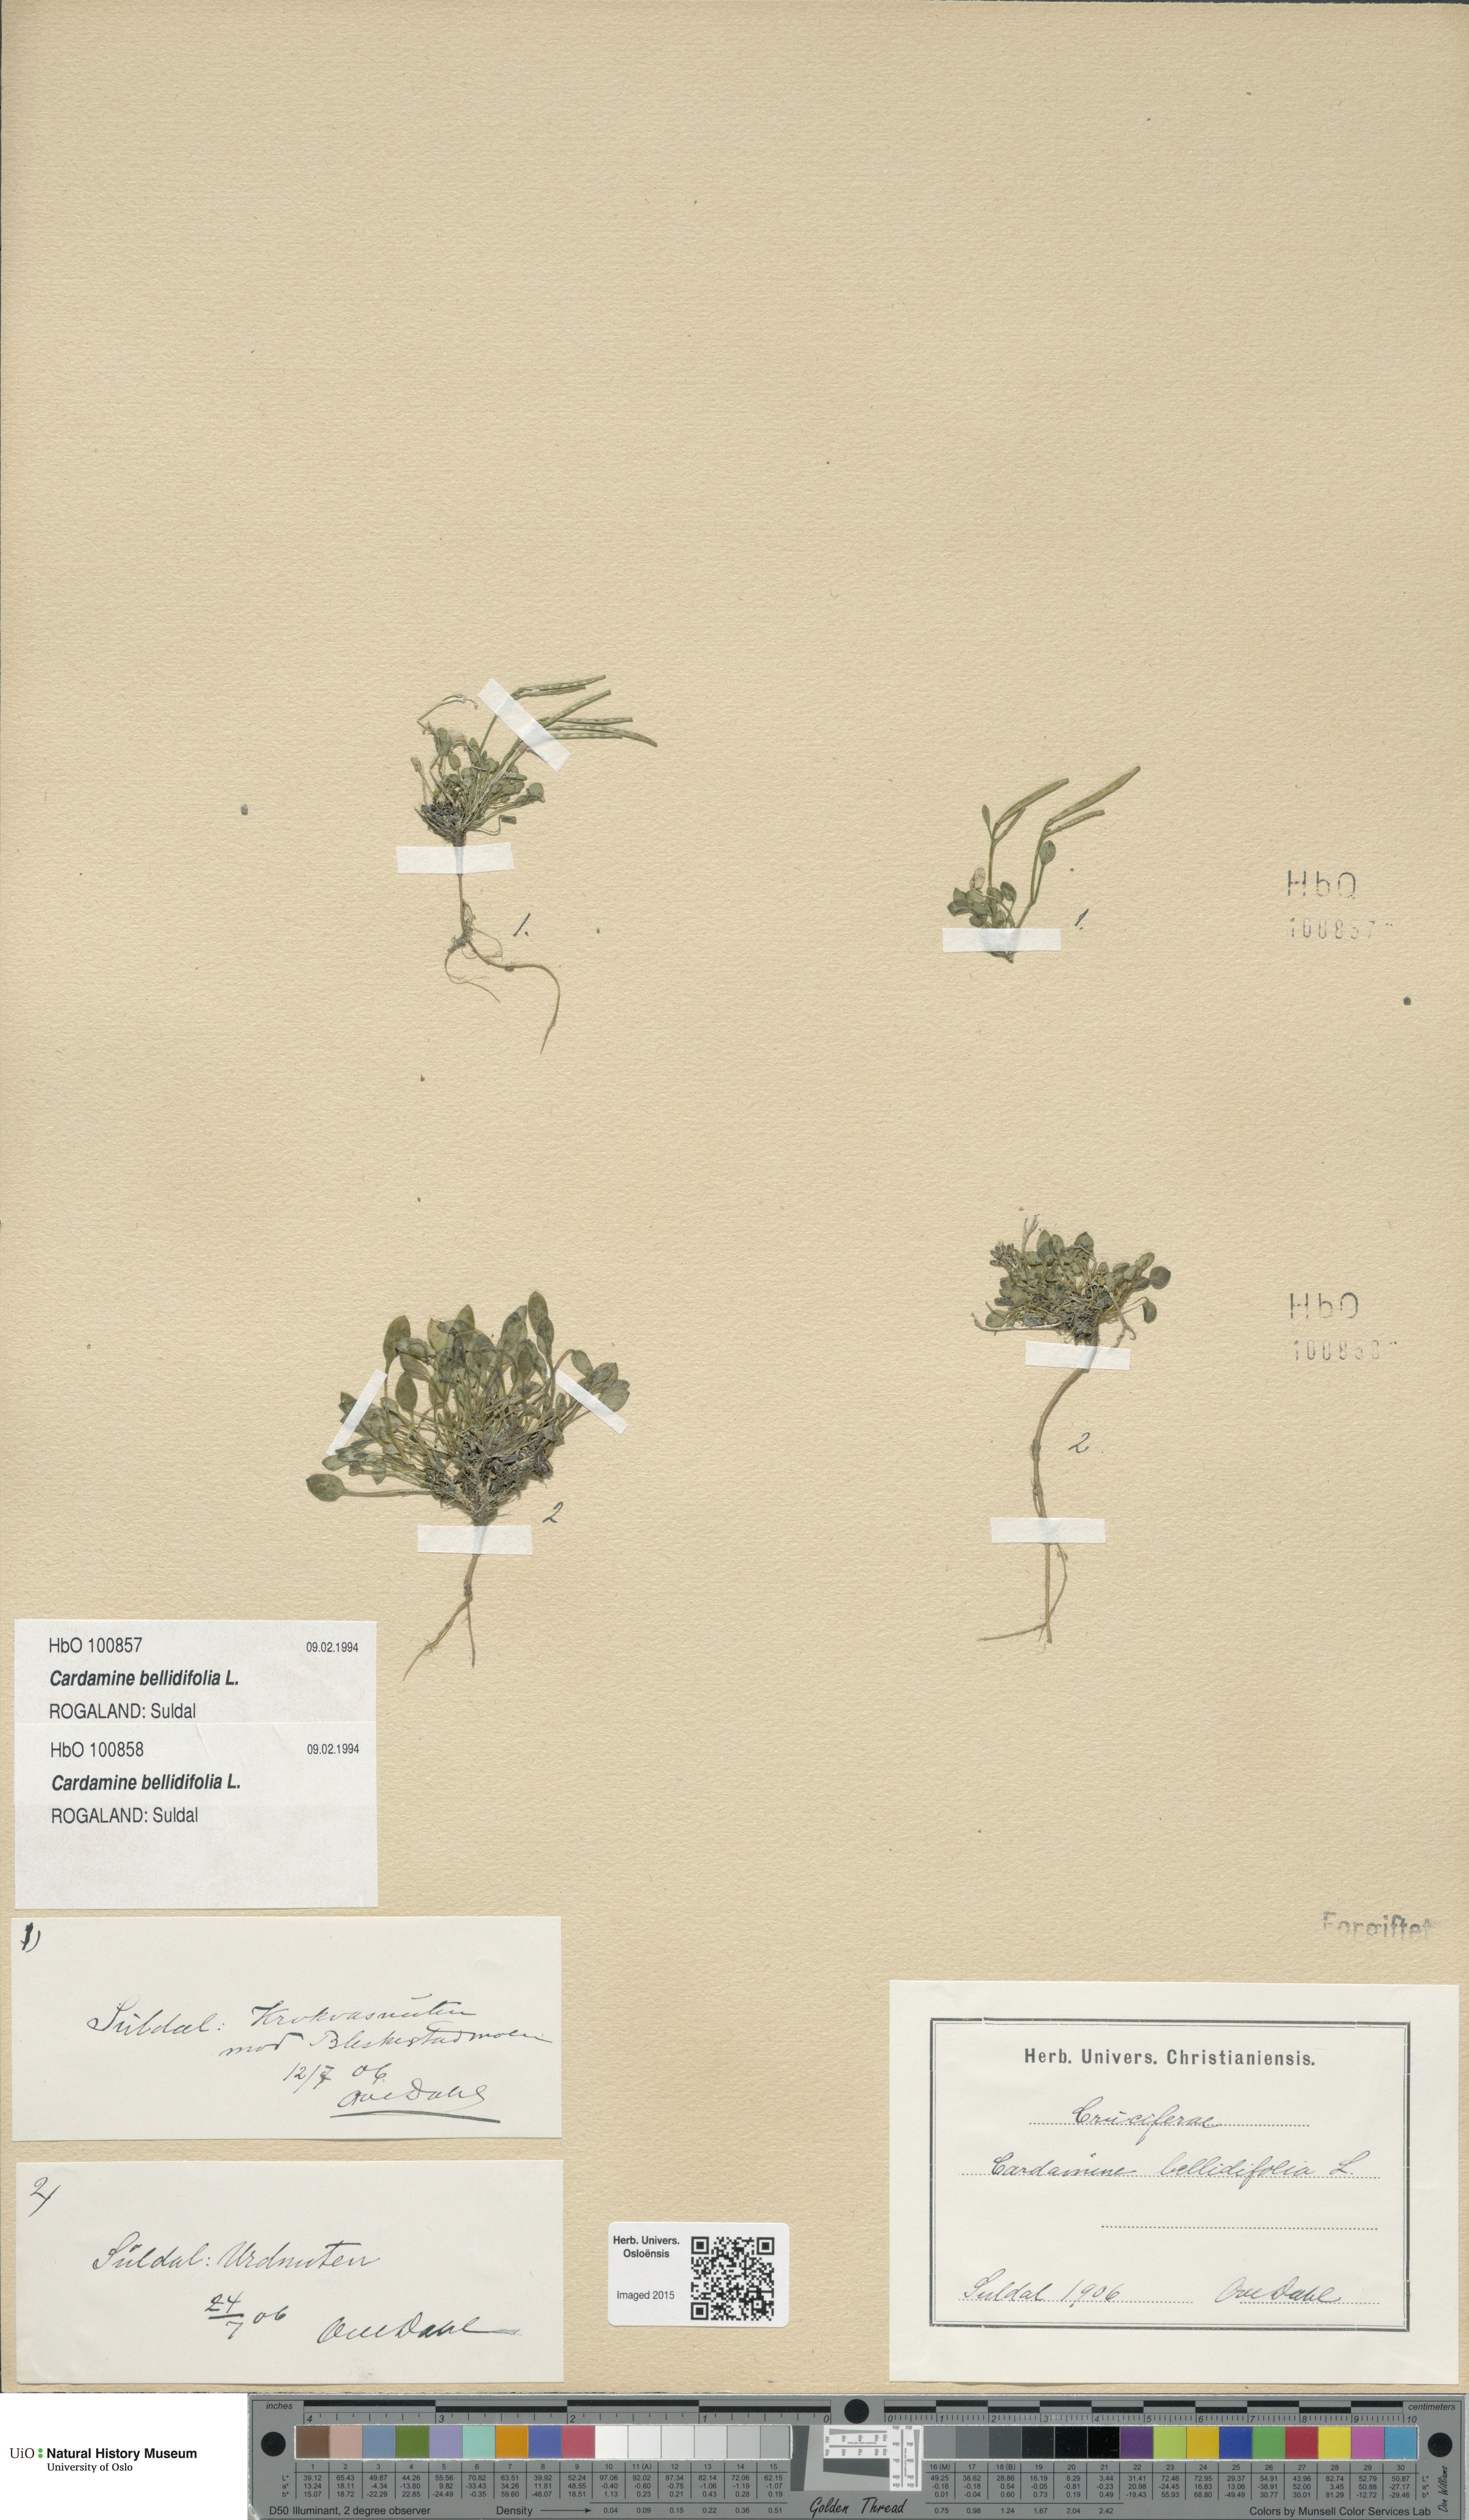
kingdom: Plantae
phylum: Tracheophyta
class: Magnoliopsida
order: Brassicales
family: Brassicaceae
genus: Cardamine
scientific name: Cardamine bellidifolia
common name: Alpine bittercress
